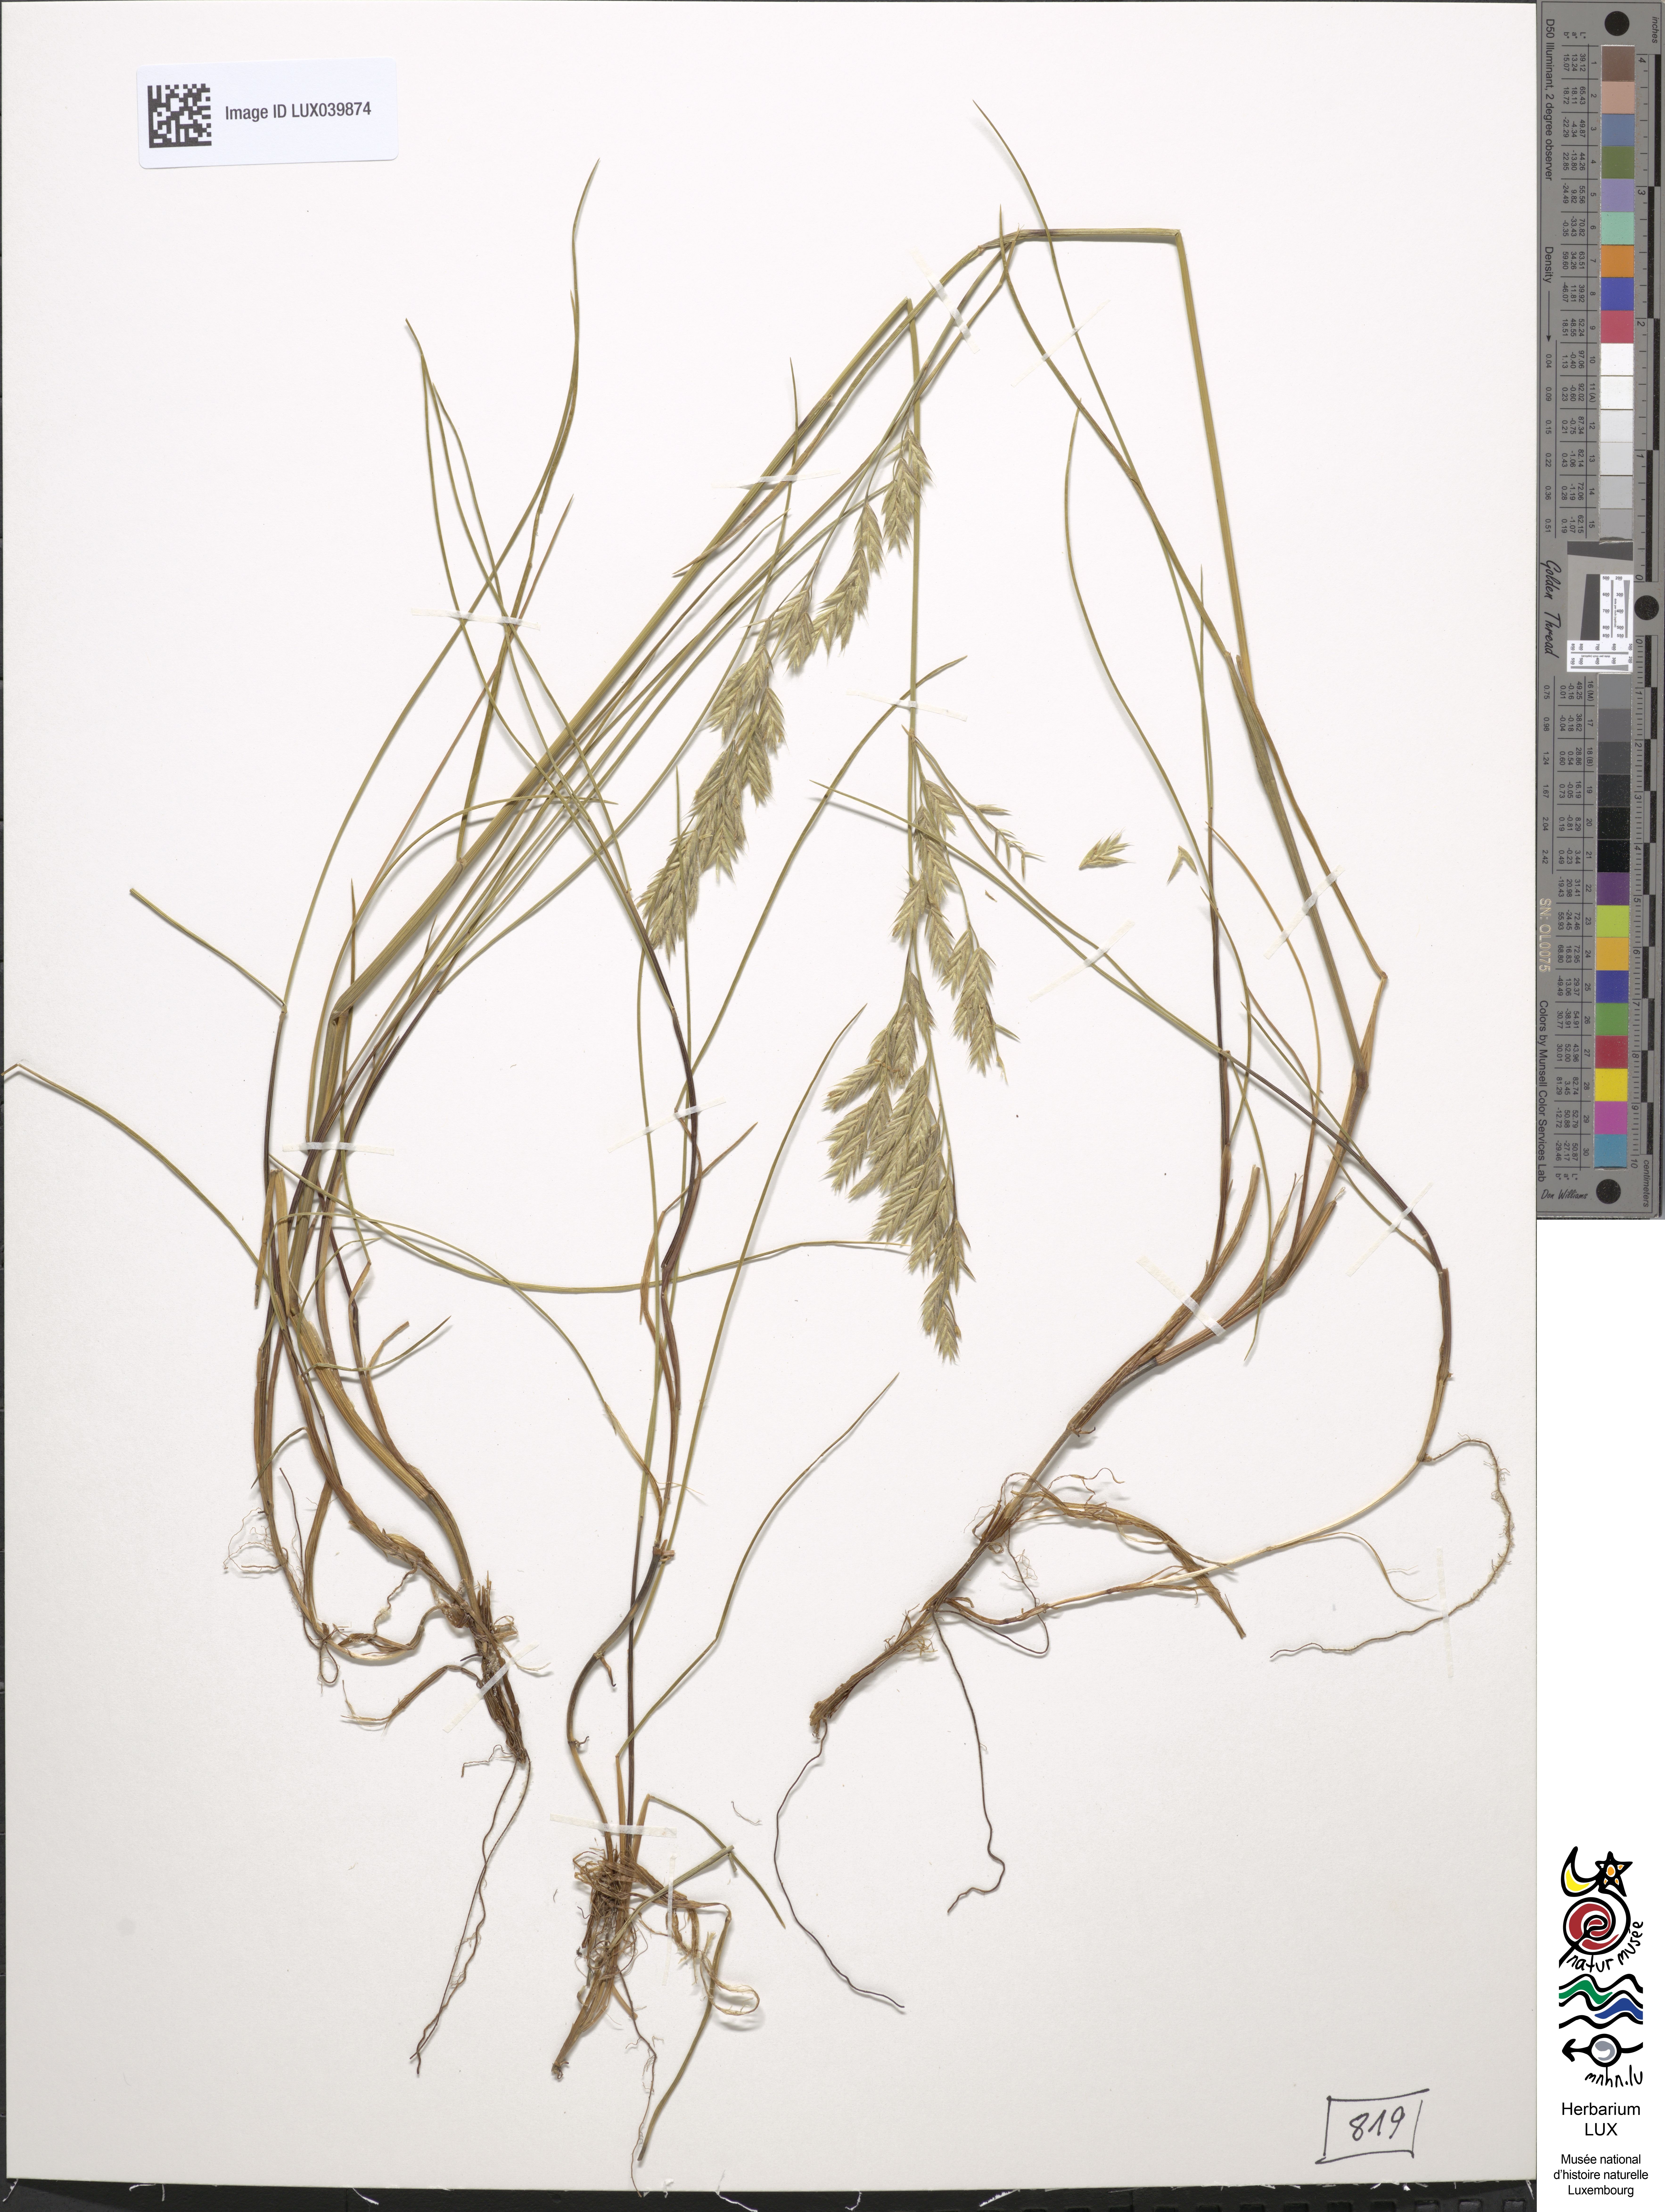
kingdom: Plantae
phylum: Tracheophyta
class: Liliopsida
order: Poales
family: Poaceae
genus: Festuca
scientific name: Festuca rubra
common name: Red fescue
